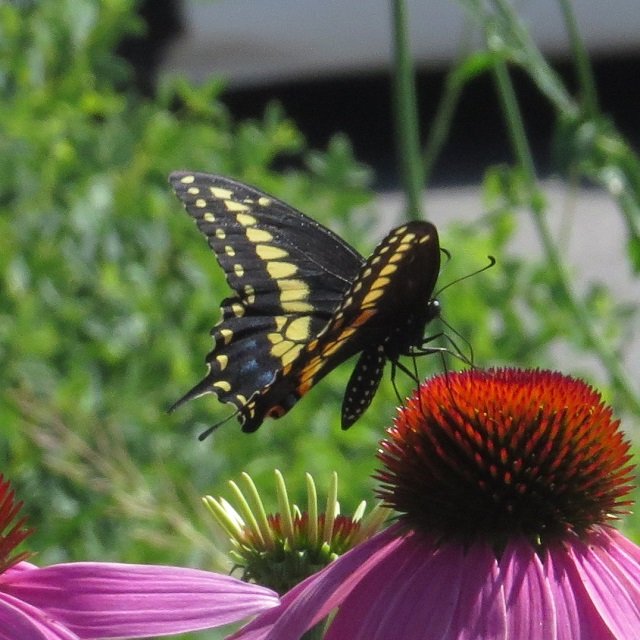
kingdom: Animalia
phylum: Arthropoda
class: Insecta
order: Lepidoptera
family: Papilionidae
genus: Papilio
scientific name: Papilio polyxenes
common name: Black Swallowtail
